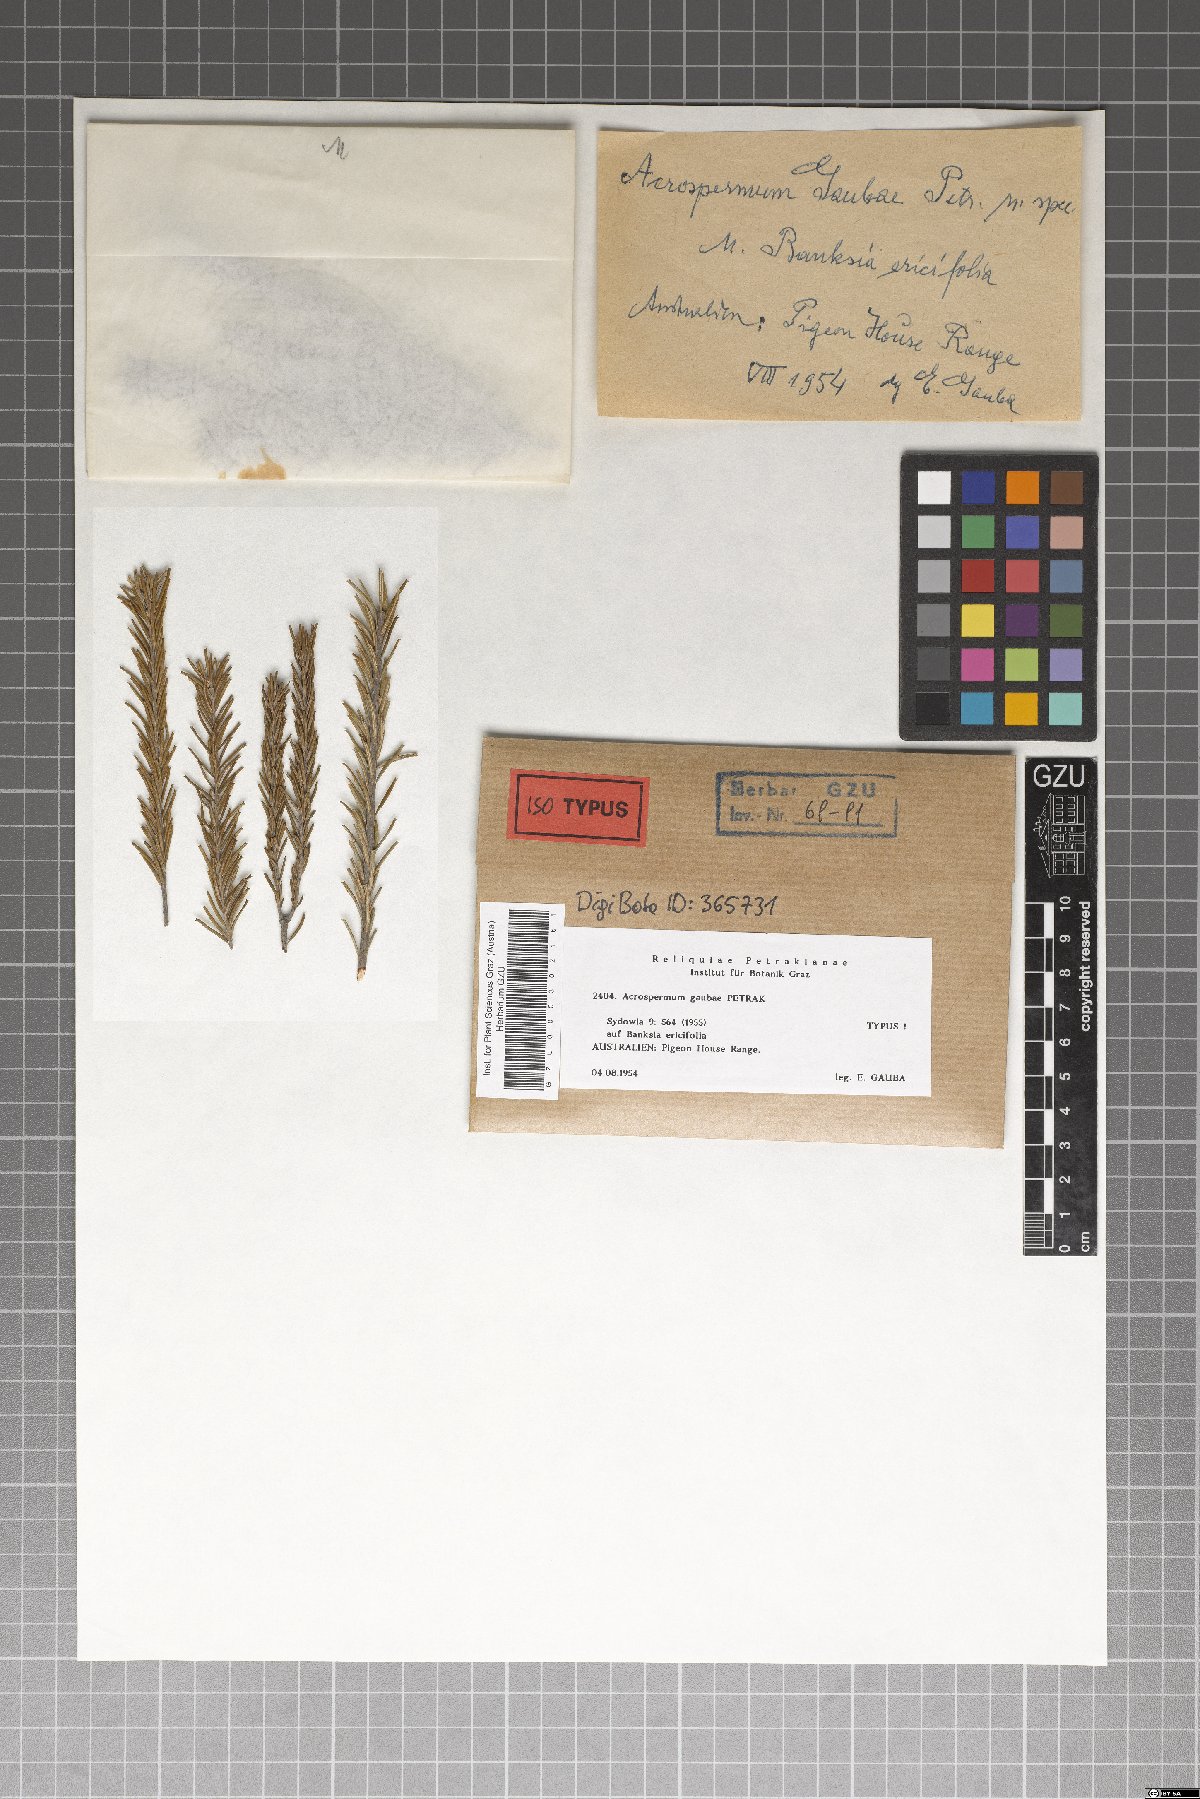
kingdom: Fungi
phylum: Ascomycota
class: Dothideomycetes
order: Acrospermales
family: Acrospermaceae
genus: Acrospermum
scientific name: Acrospermum gaubae
